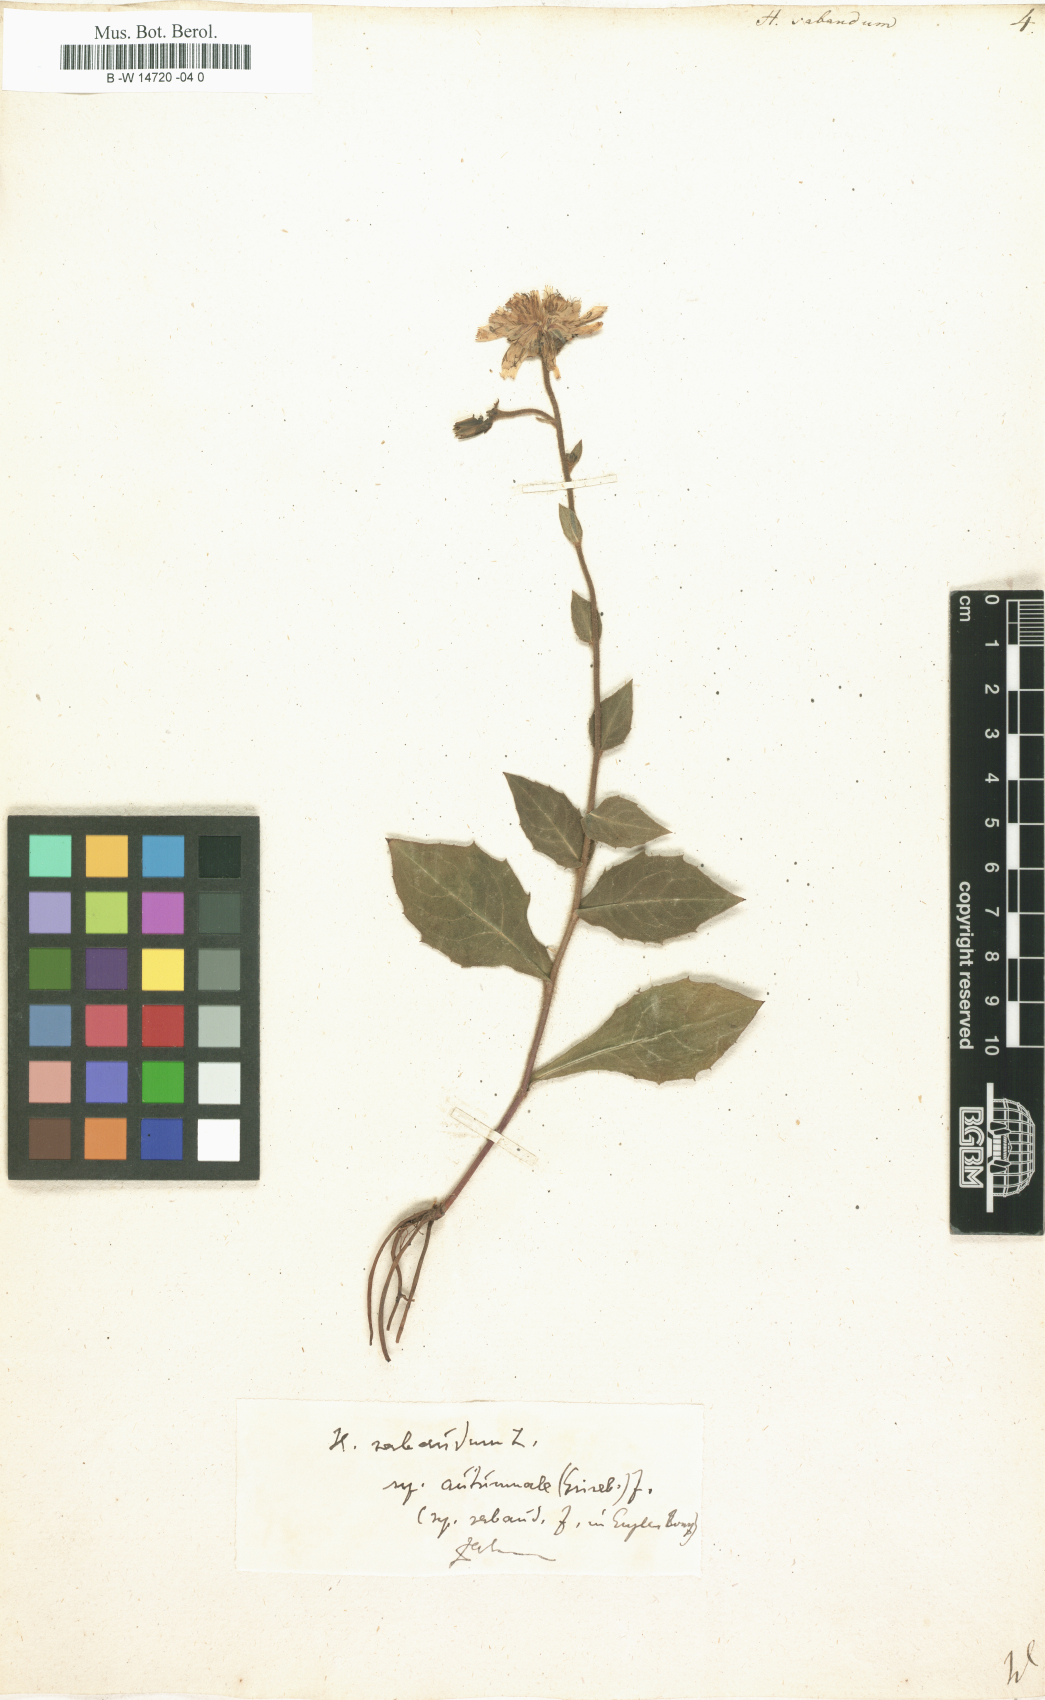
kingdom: Plantae
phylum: Tracheophyta
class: Magnoliopsida
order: Asterales
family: Asteraceae
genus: Hieracium
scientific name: Hieracium sabaudum
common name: New england hawkweed
